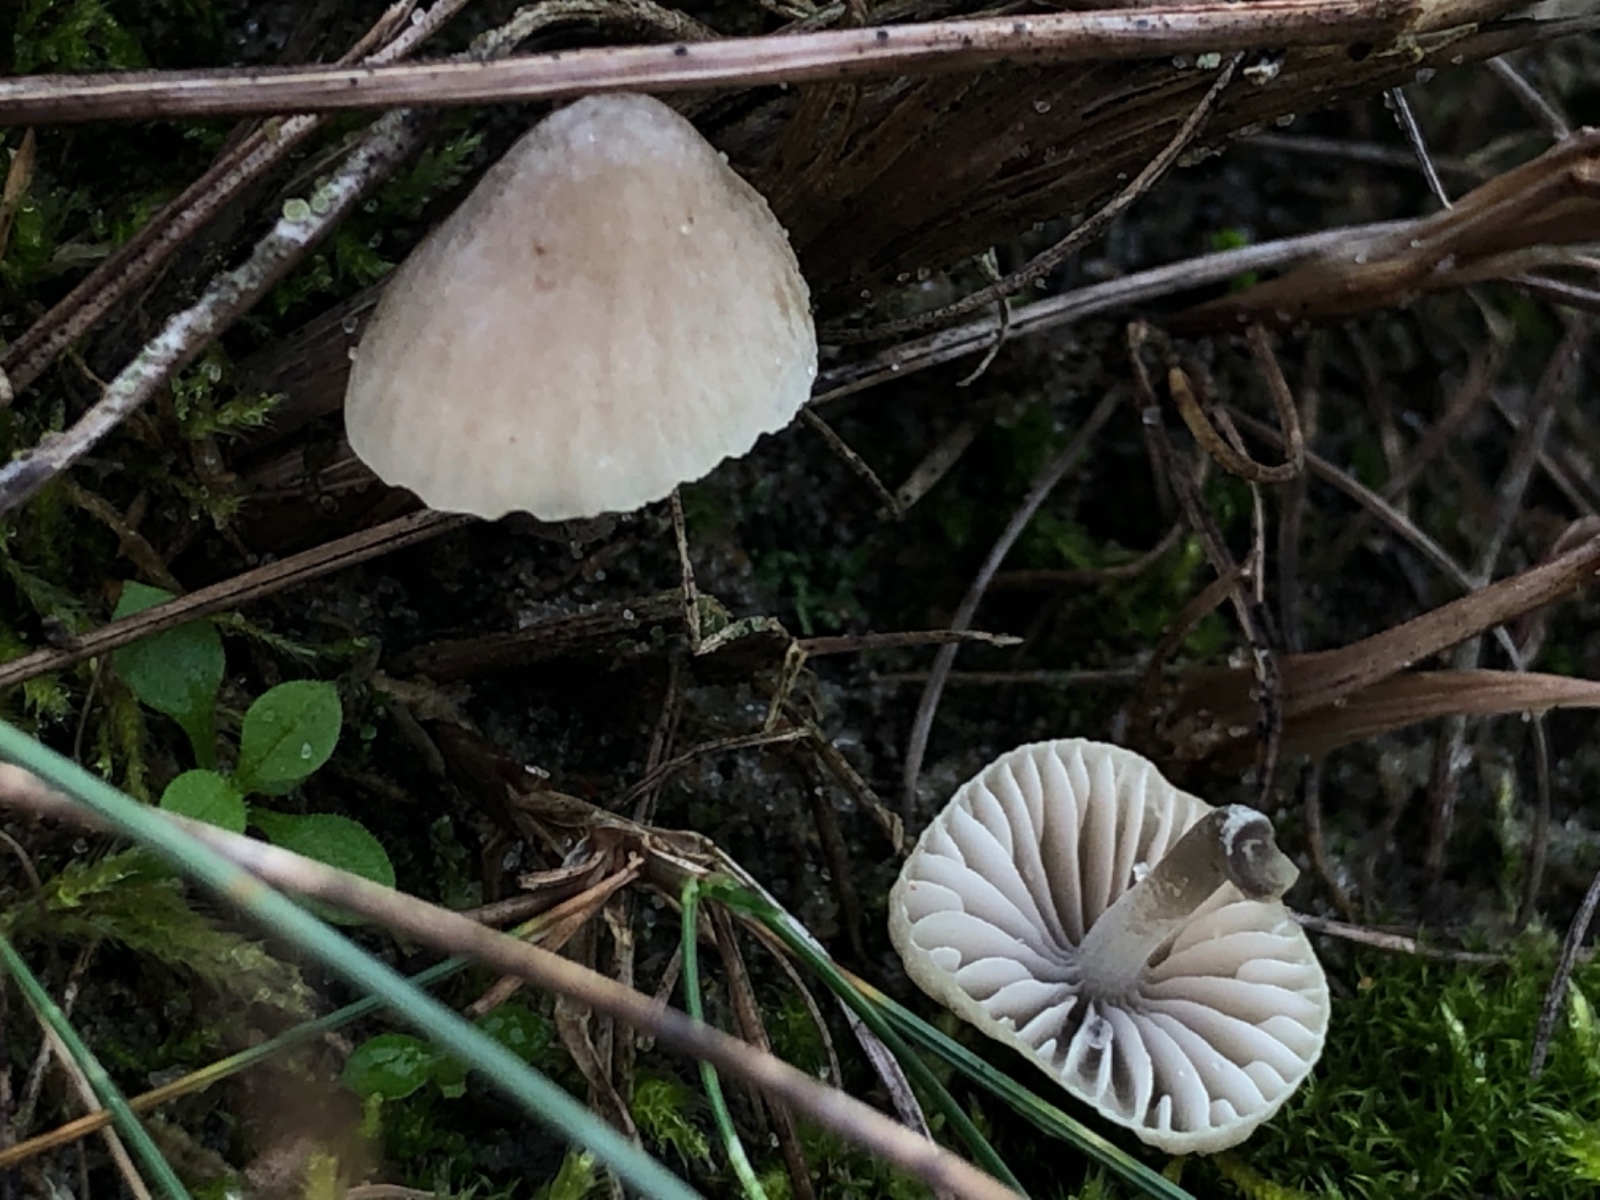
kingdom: Fungi
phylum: Basidiomycota
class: Agaricomycetes
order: Agaricales
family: Mycenaceae
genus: Mycena
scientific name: Mycena chlorantha
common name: klit-huesvamp
